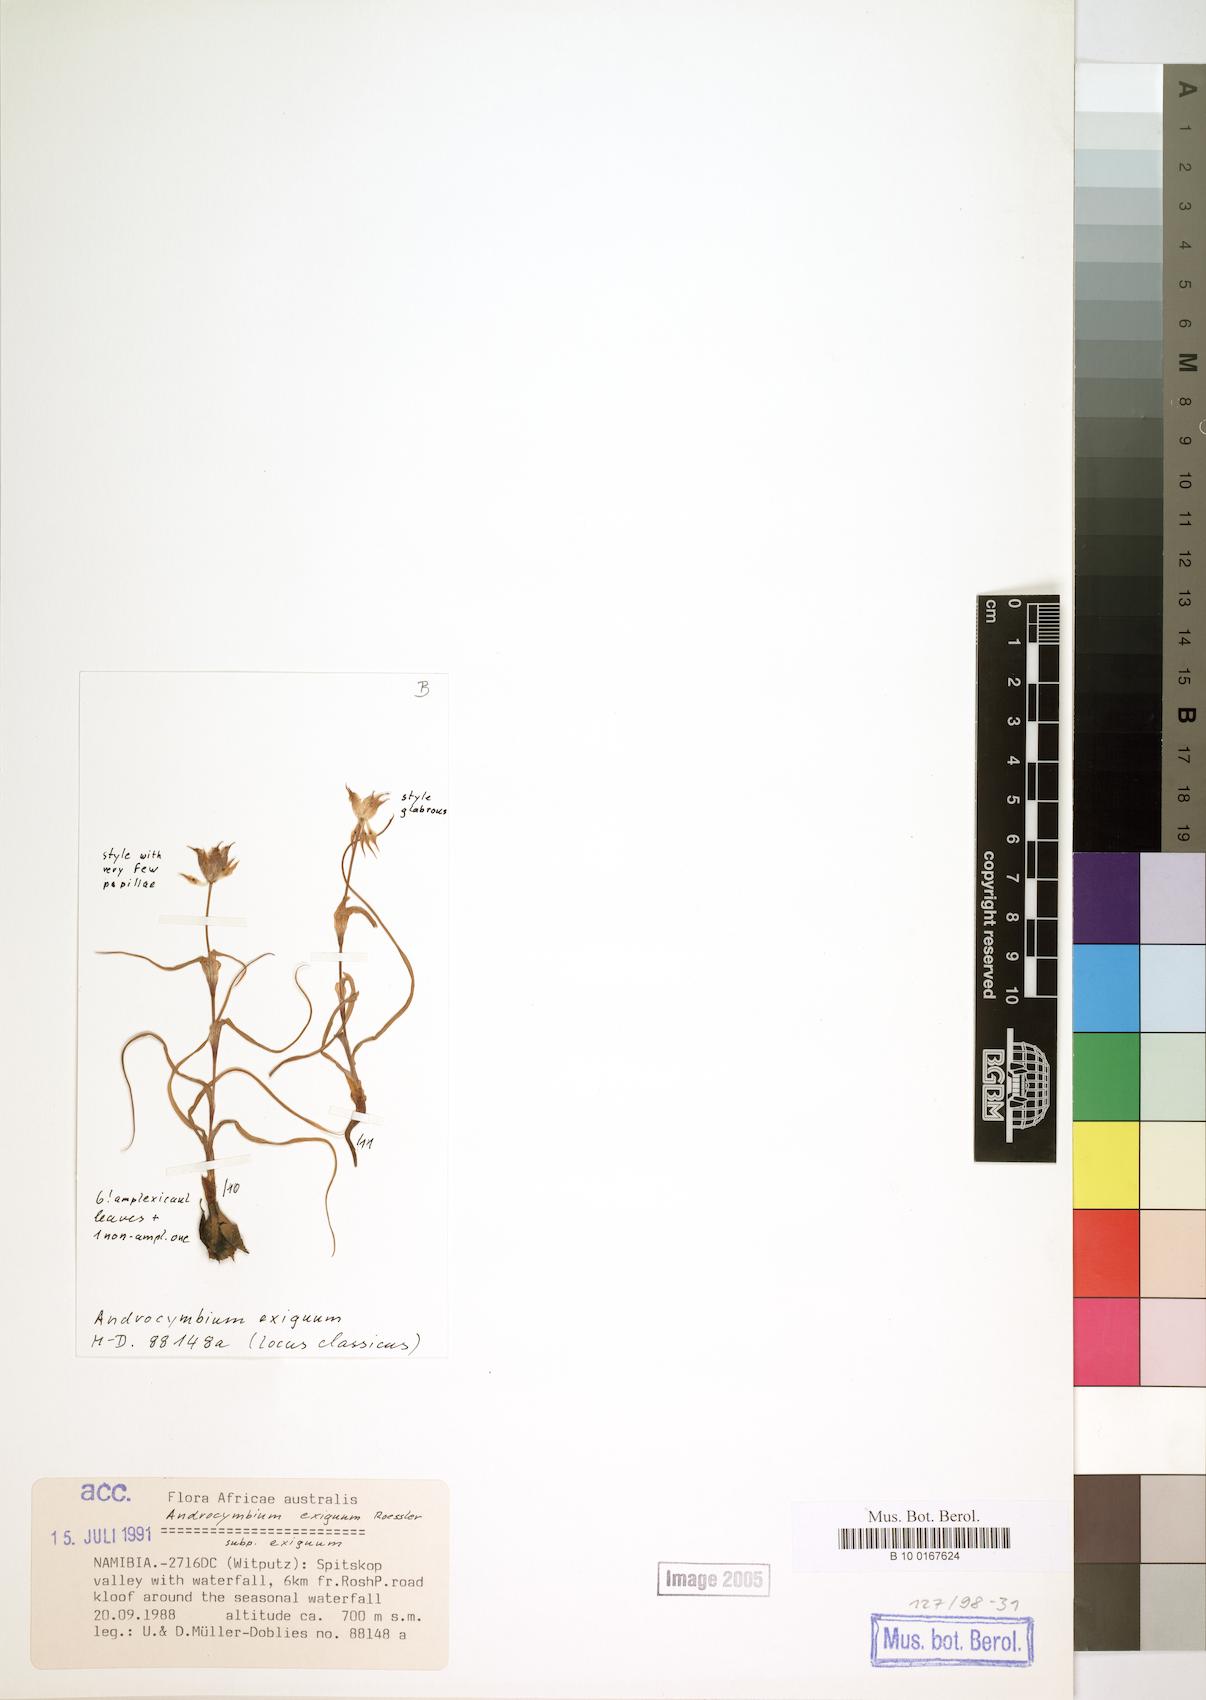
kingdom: Plantae
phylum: Tracheophyta
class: Liliopsida
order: Liliales
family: Colchicaceae
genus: Colchicum
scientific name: Colchicum exiguum
